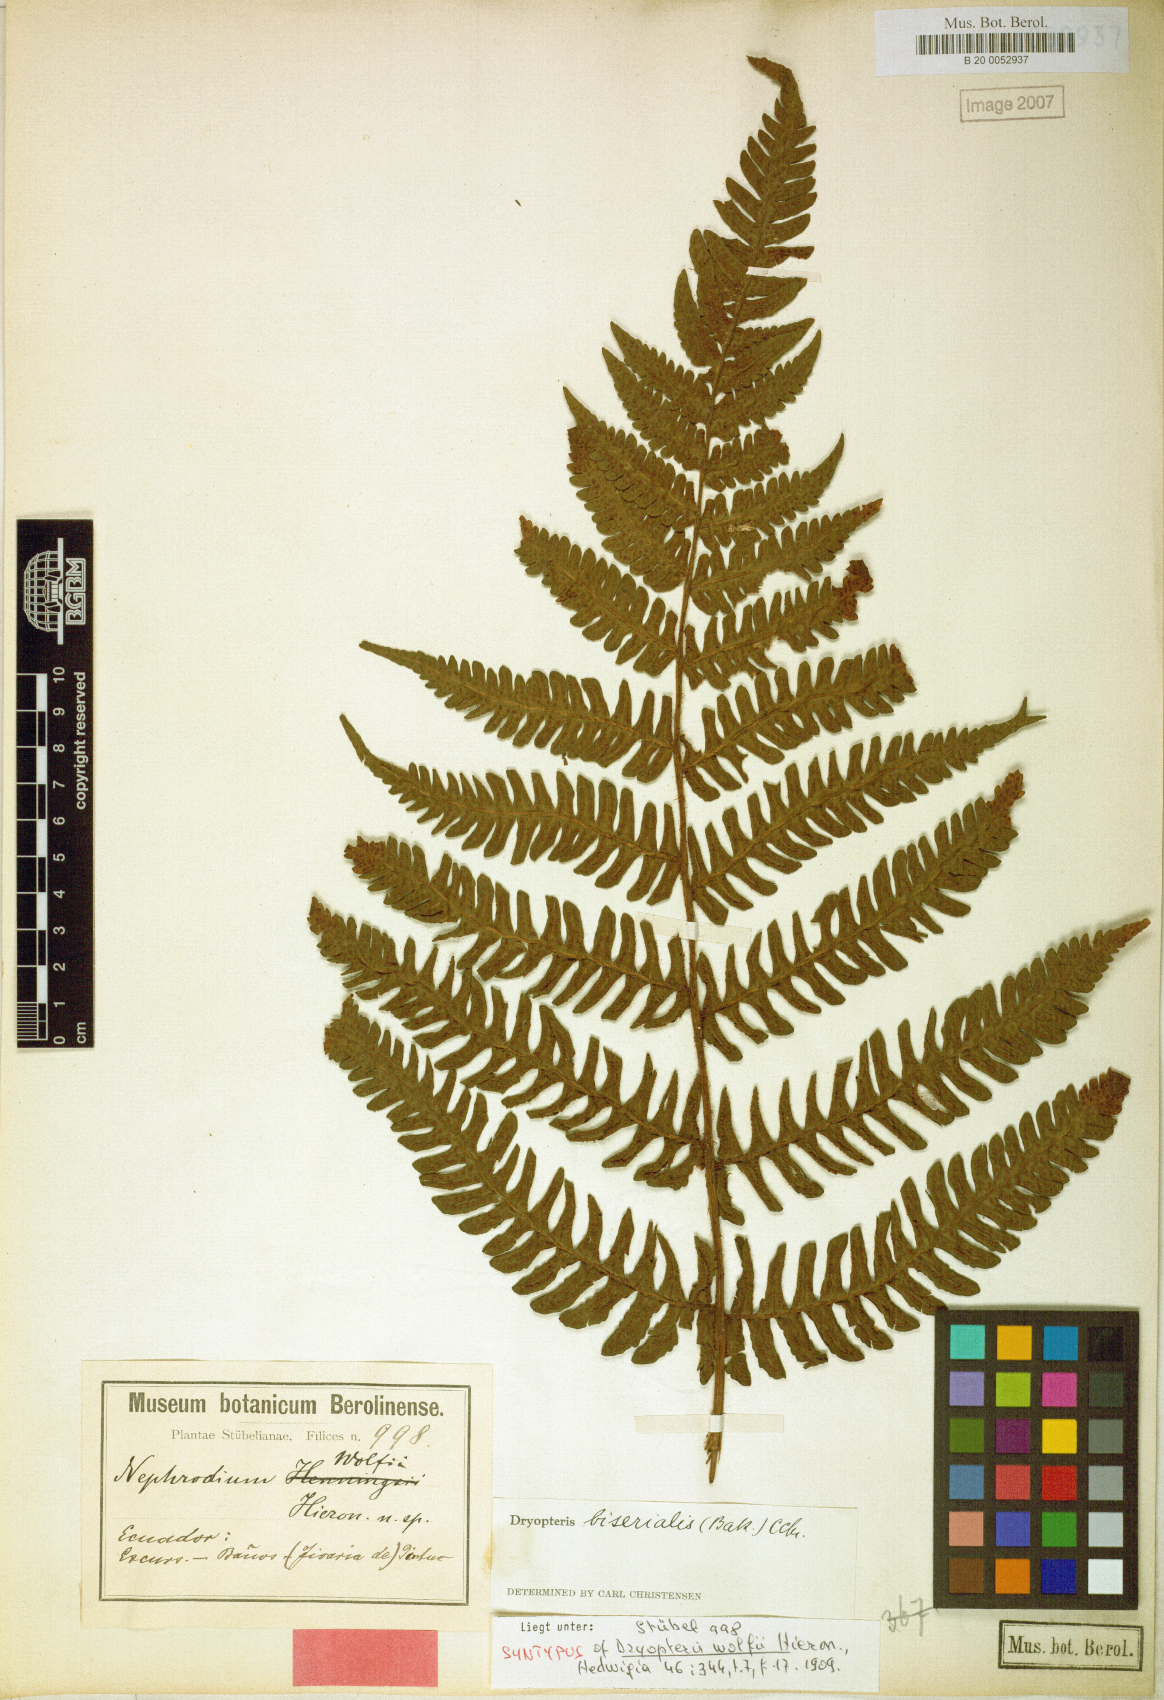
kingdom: Plantae
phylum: Tracheophyta
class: Polypodiopsida
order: Polypodiales
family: Dryopteridaceae
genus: Megalastrum
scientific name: Megalastrum biseriale
